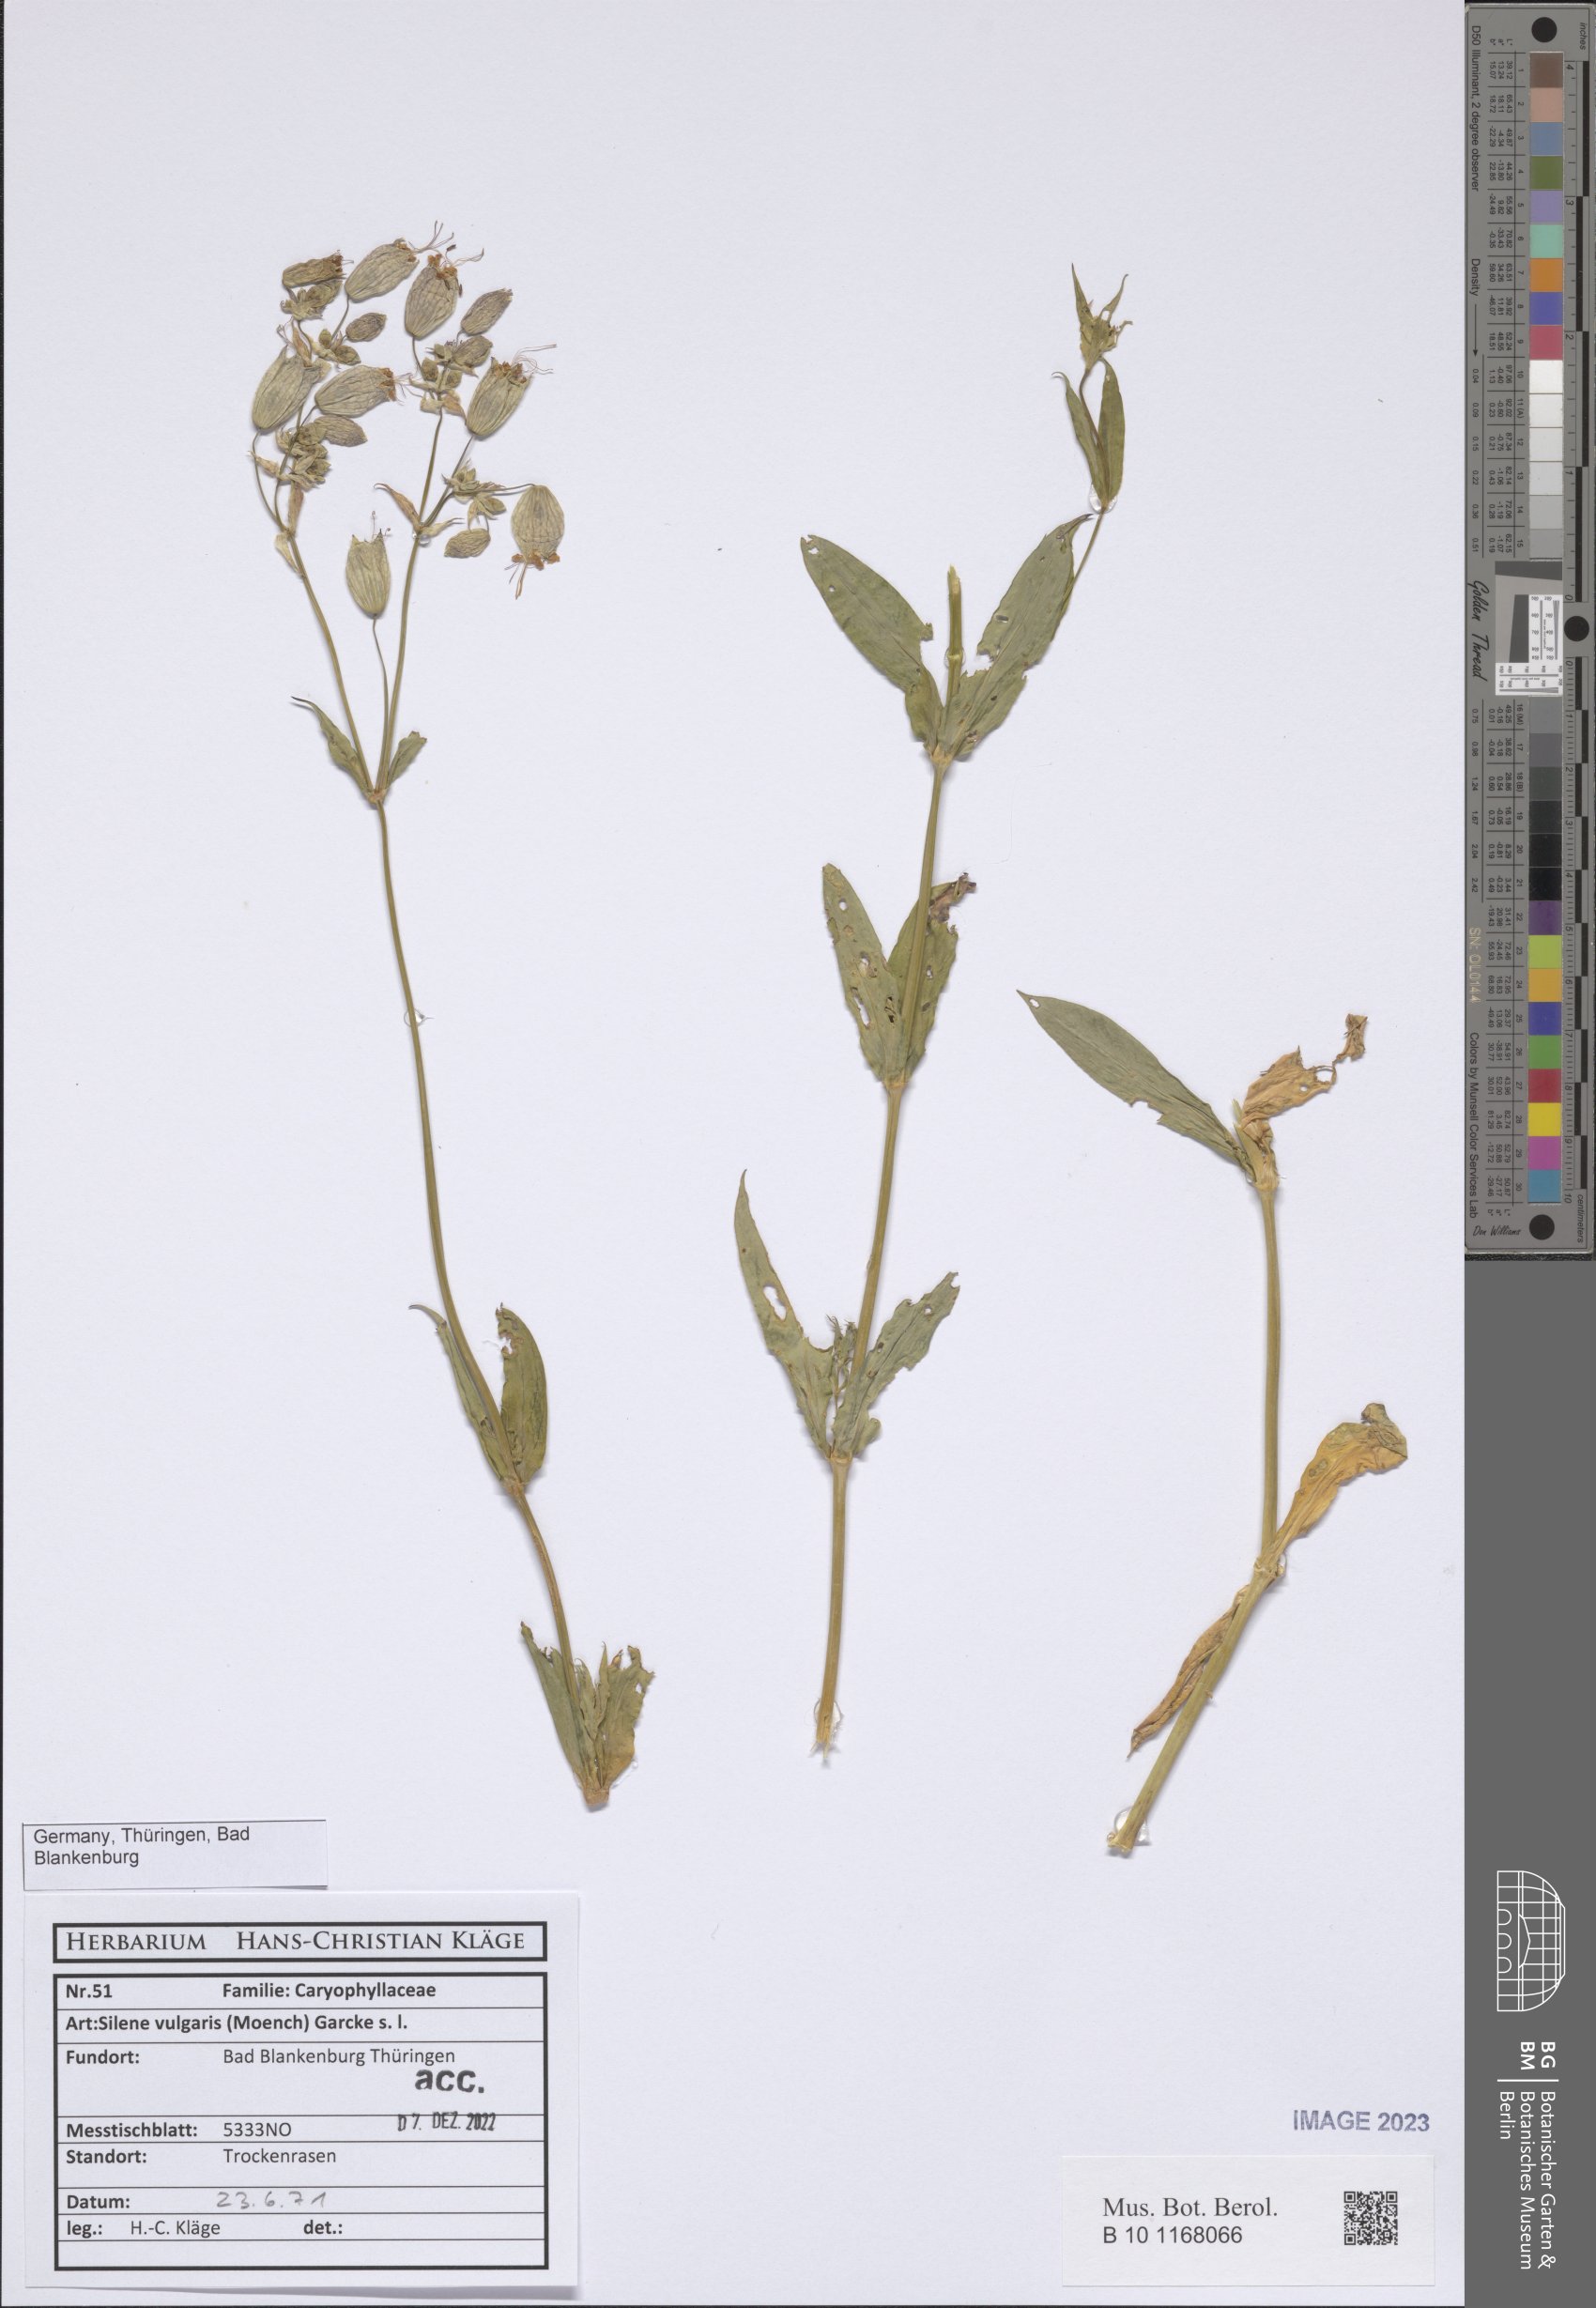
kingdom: Plantae
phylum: Tracheophyta
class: Magnoliopsida
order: Caryophyllales
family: Caryophyllaceae
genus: Silene
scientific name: Silene vulgaris
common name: Bladder campion
